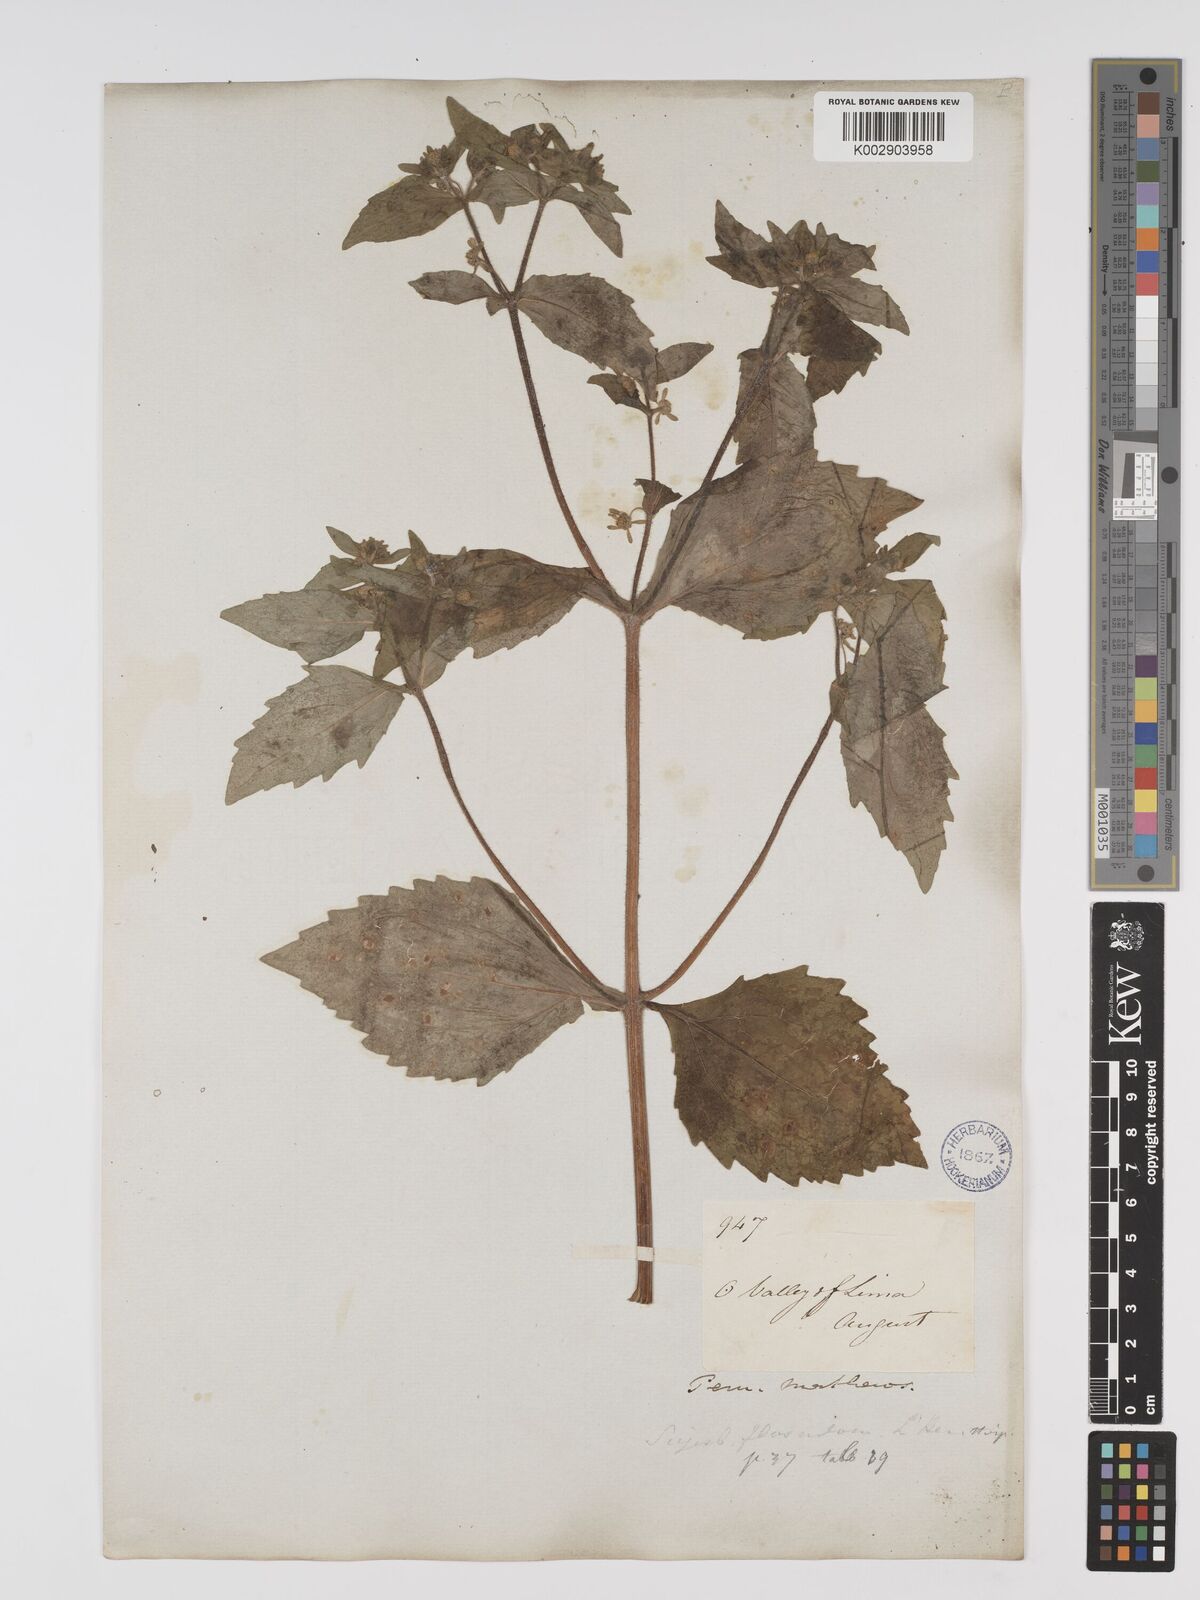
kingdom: Plantae
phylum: Tracheophyta
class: Magnoliopsida
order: Asterales
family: Asteraceae
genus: Sigesbeckia
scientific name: Sigesbeckia flosculosa
